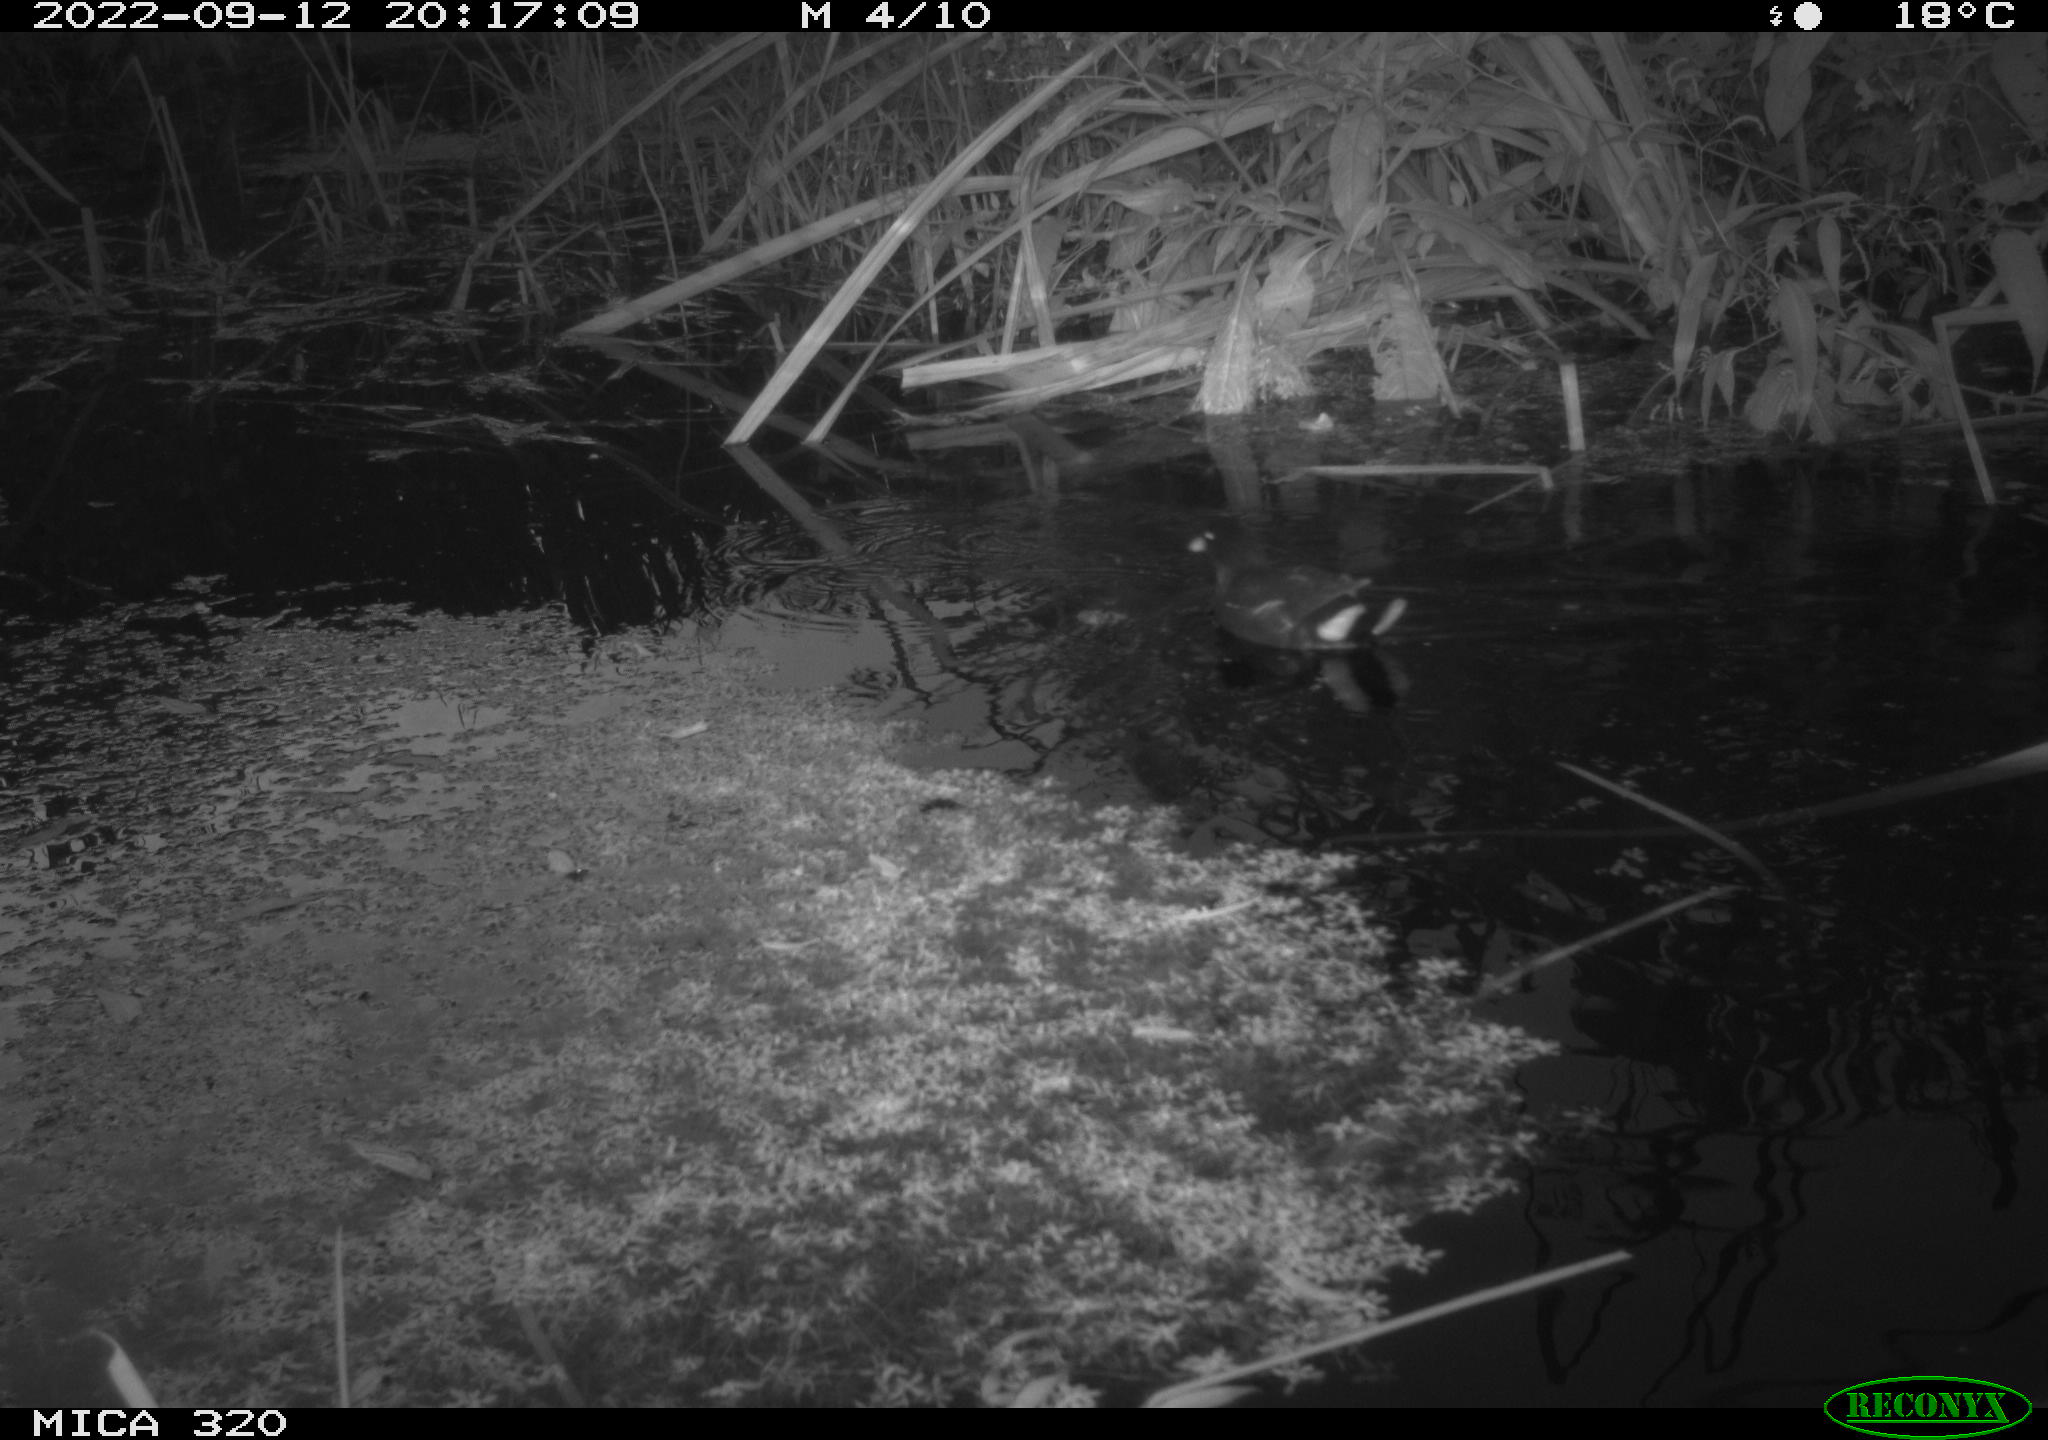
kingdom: Animalia
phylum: Chordata
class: Aves
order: Gruiformes
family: Rallidae
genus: Gallinula
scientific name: Gallinula chloropus
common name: Common moorhen
